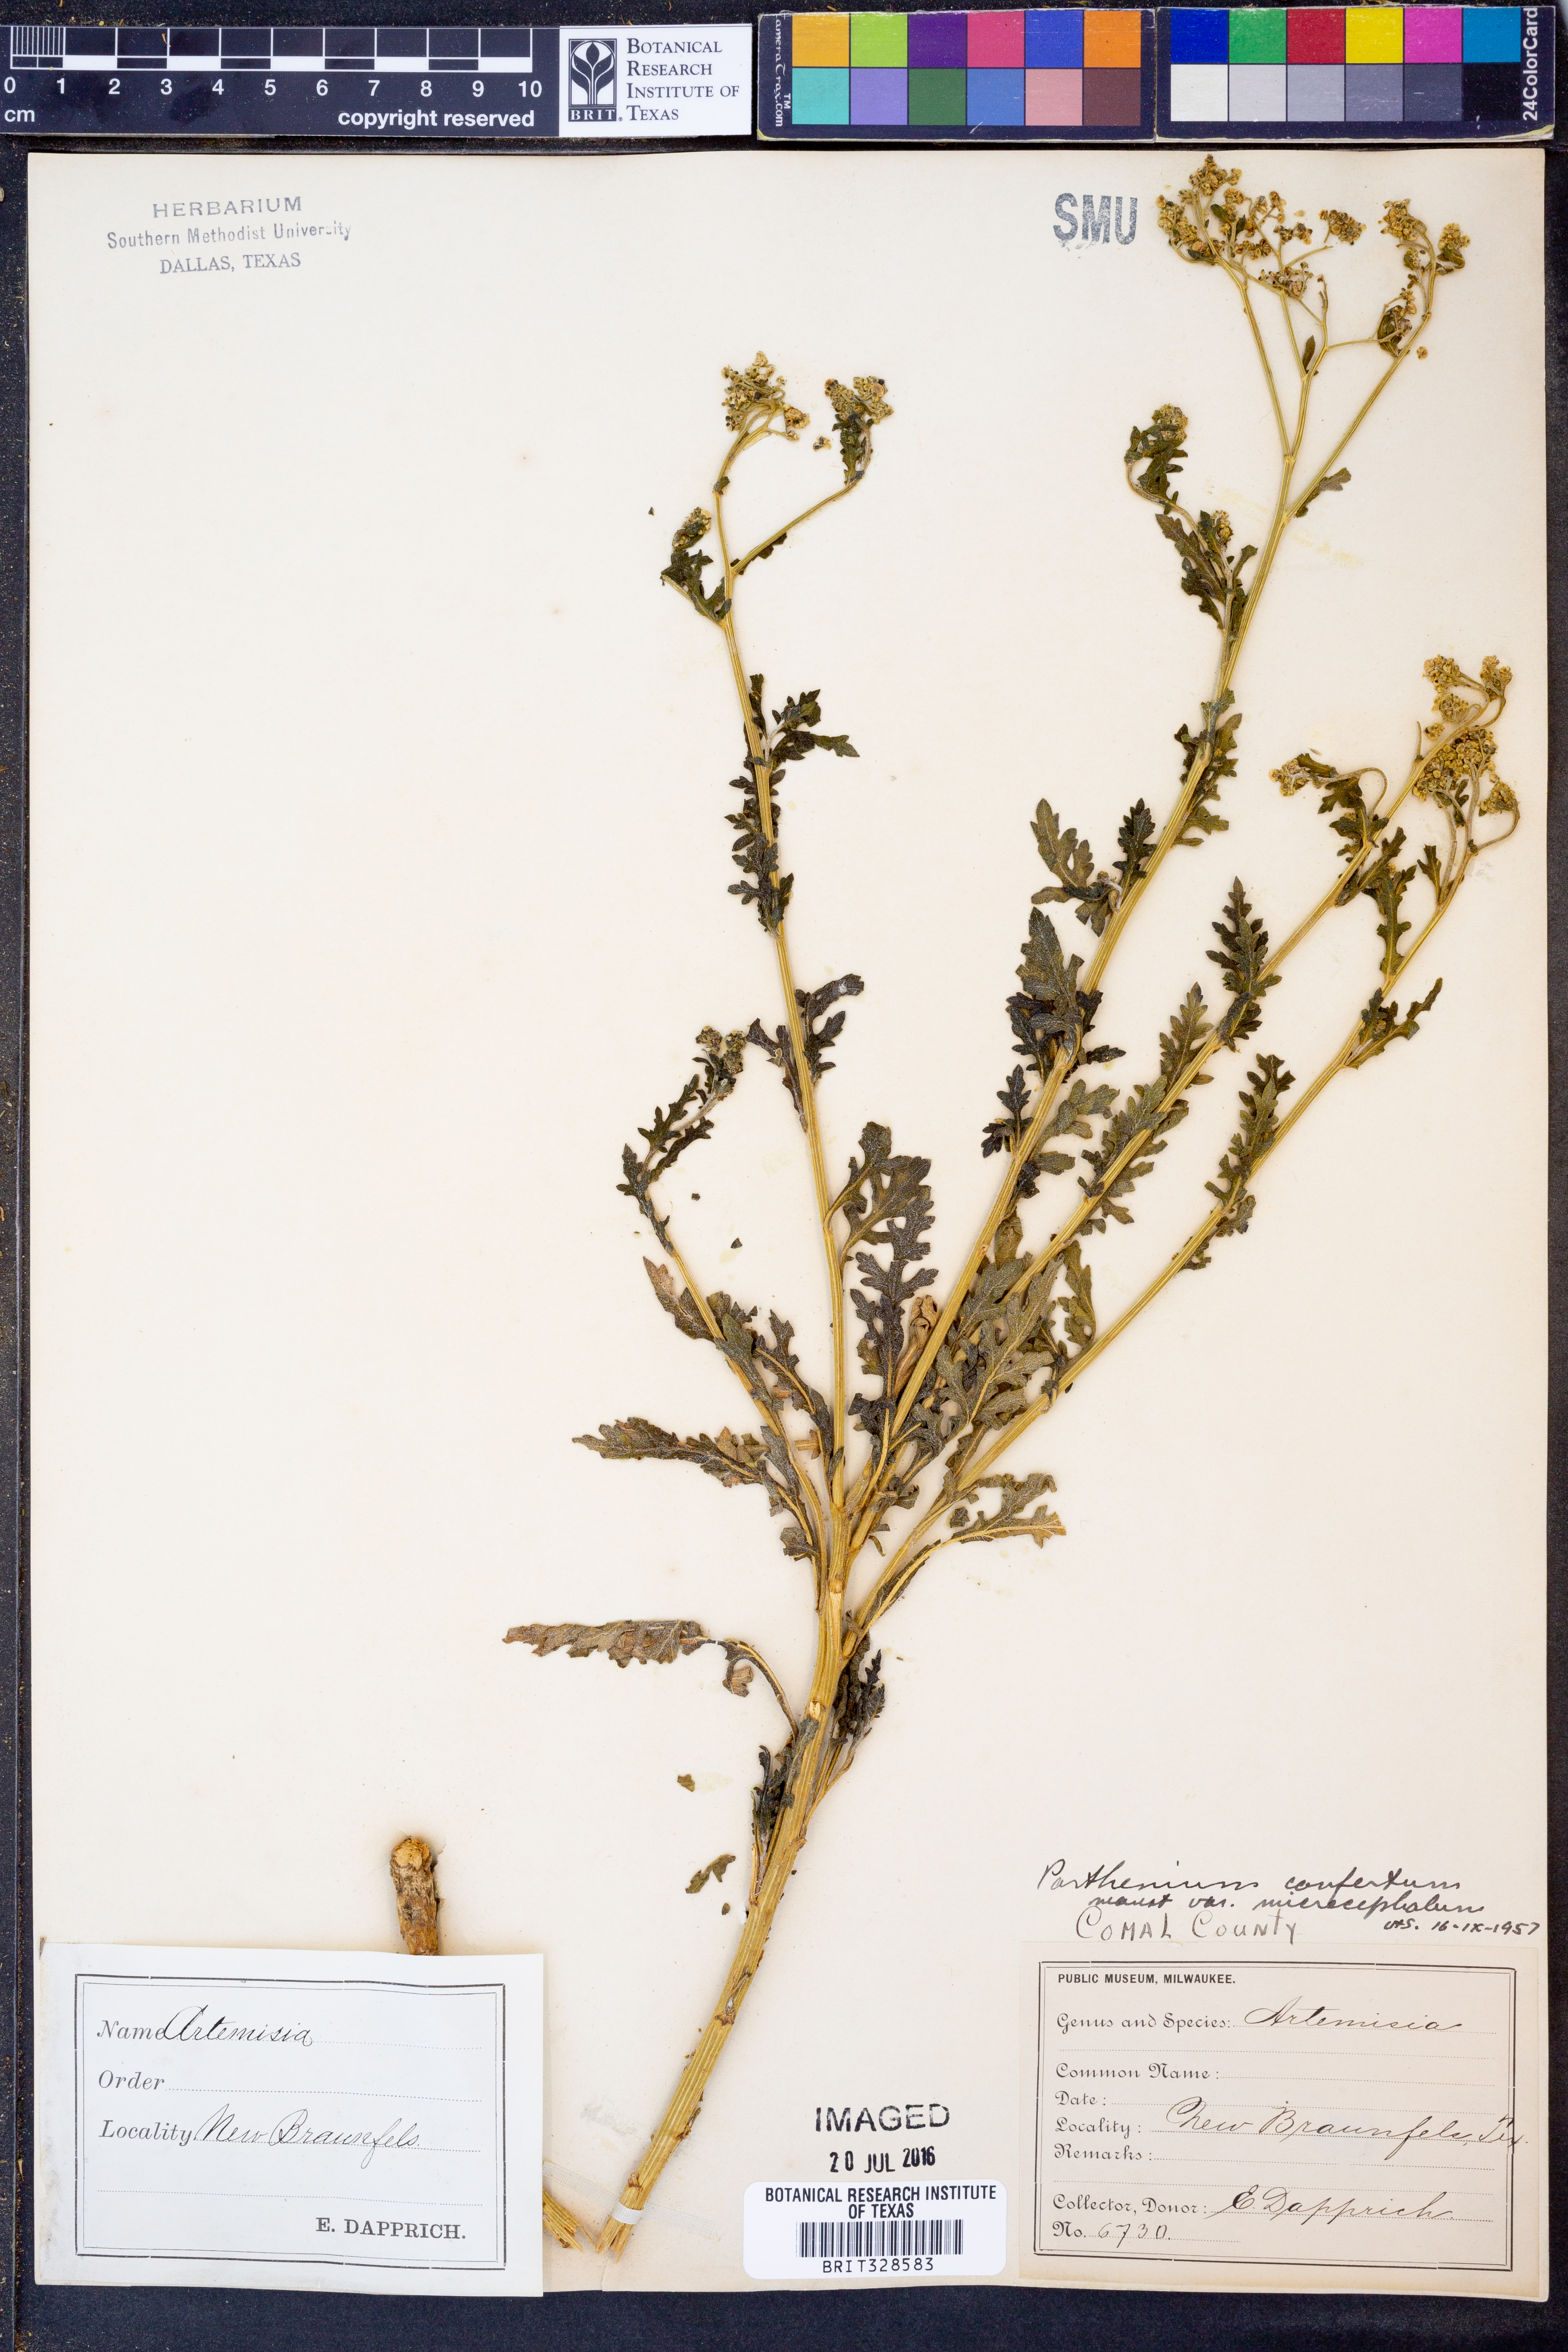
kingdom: Plantae
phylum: Tracheophyta
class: Magnoliopsida
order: Asterales
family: Asteraceae
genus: Parthenium
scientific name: Parthenium confertum
